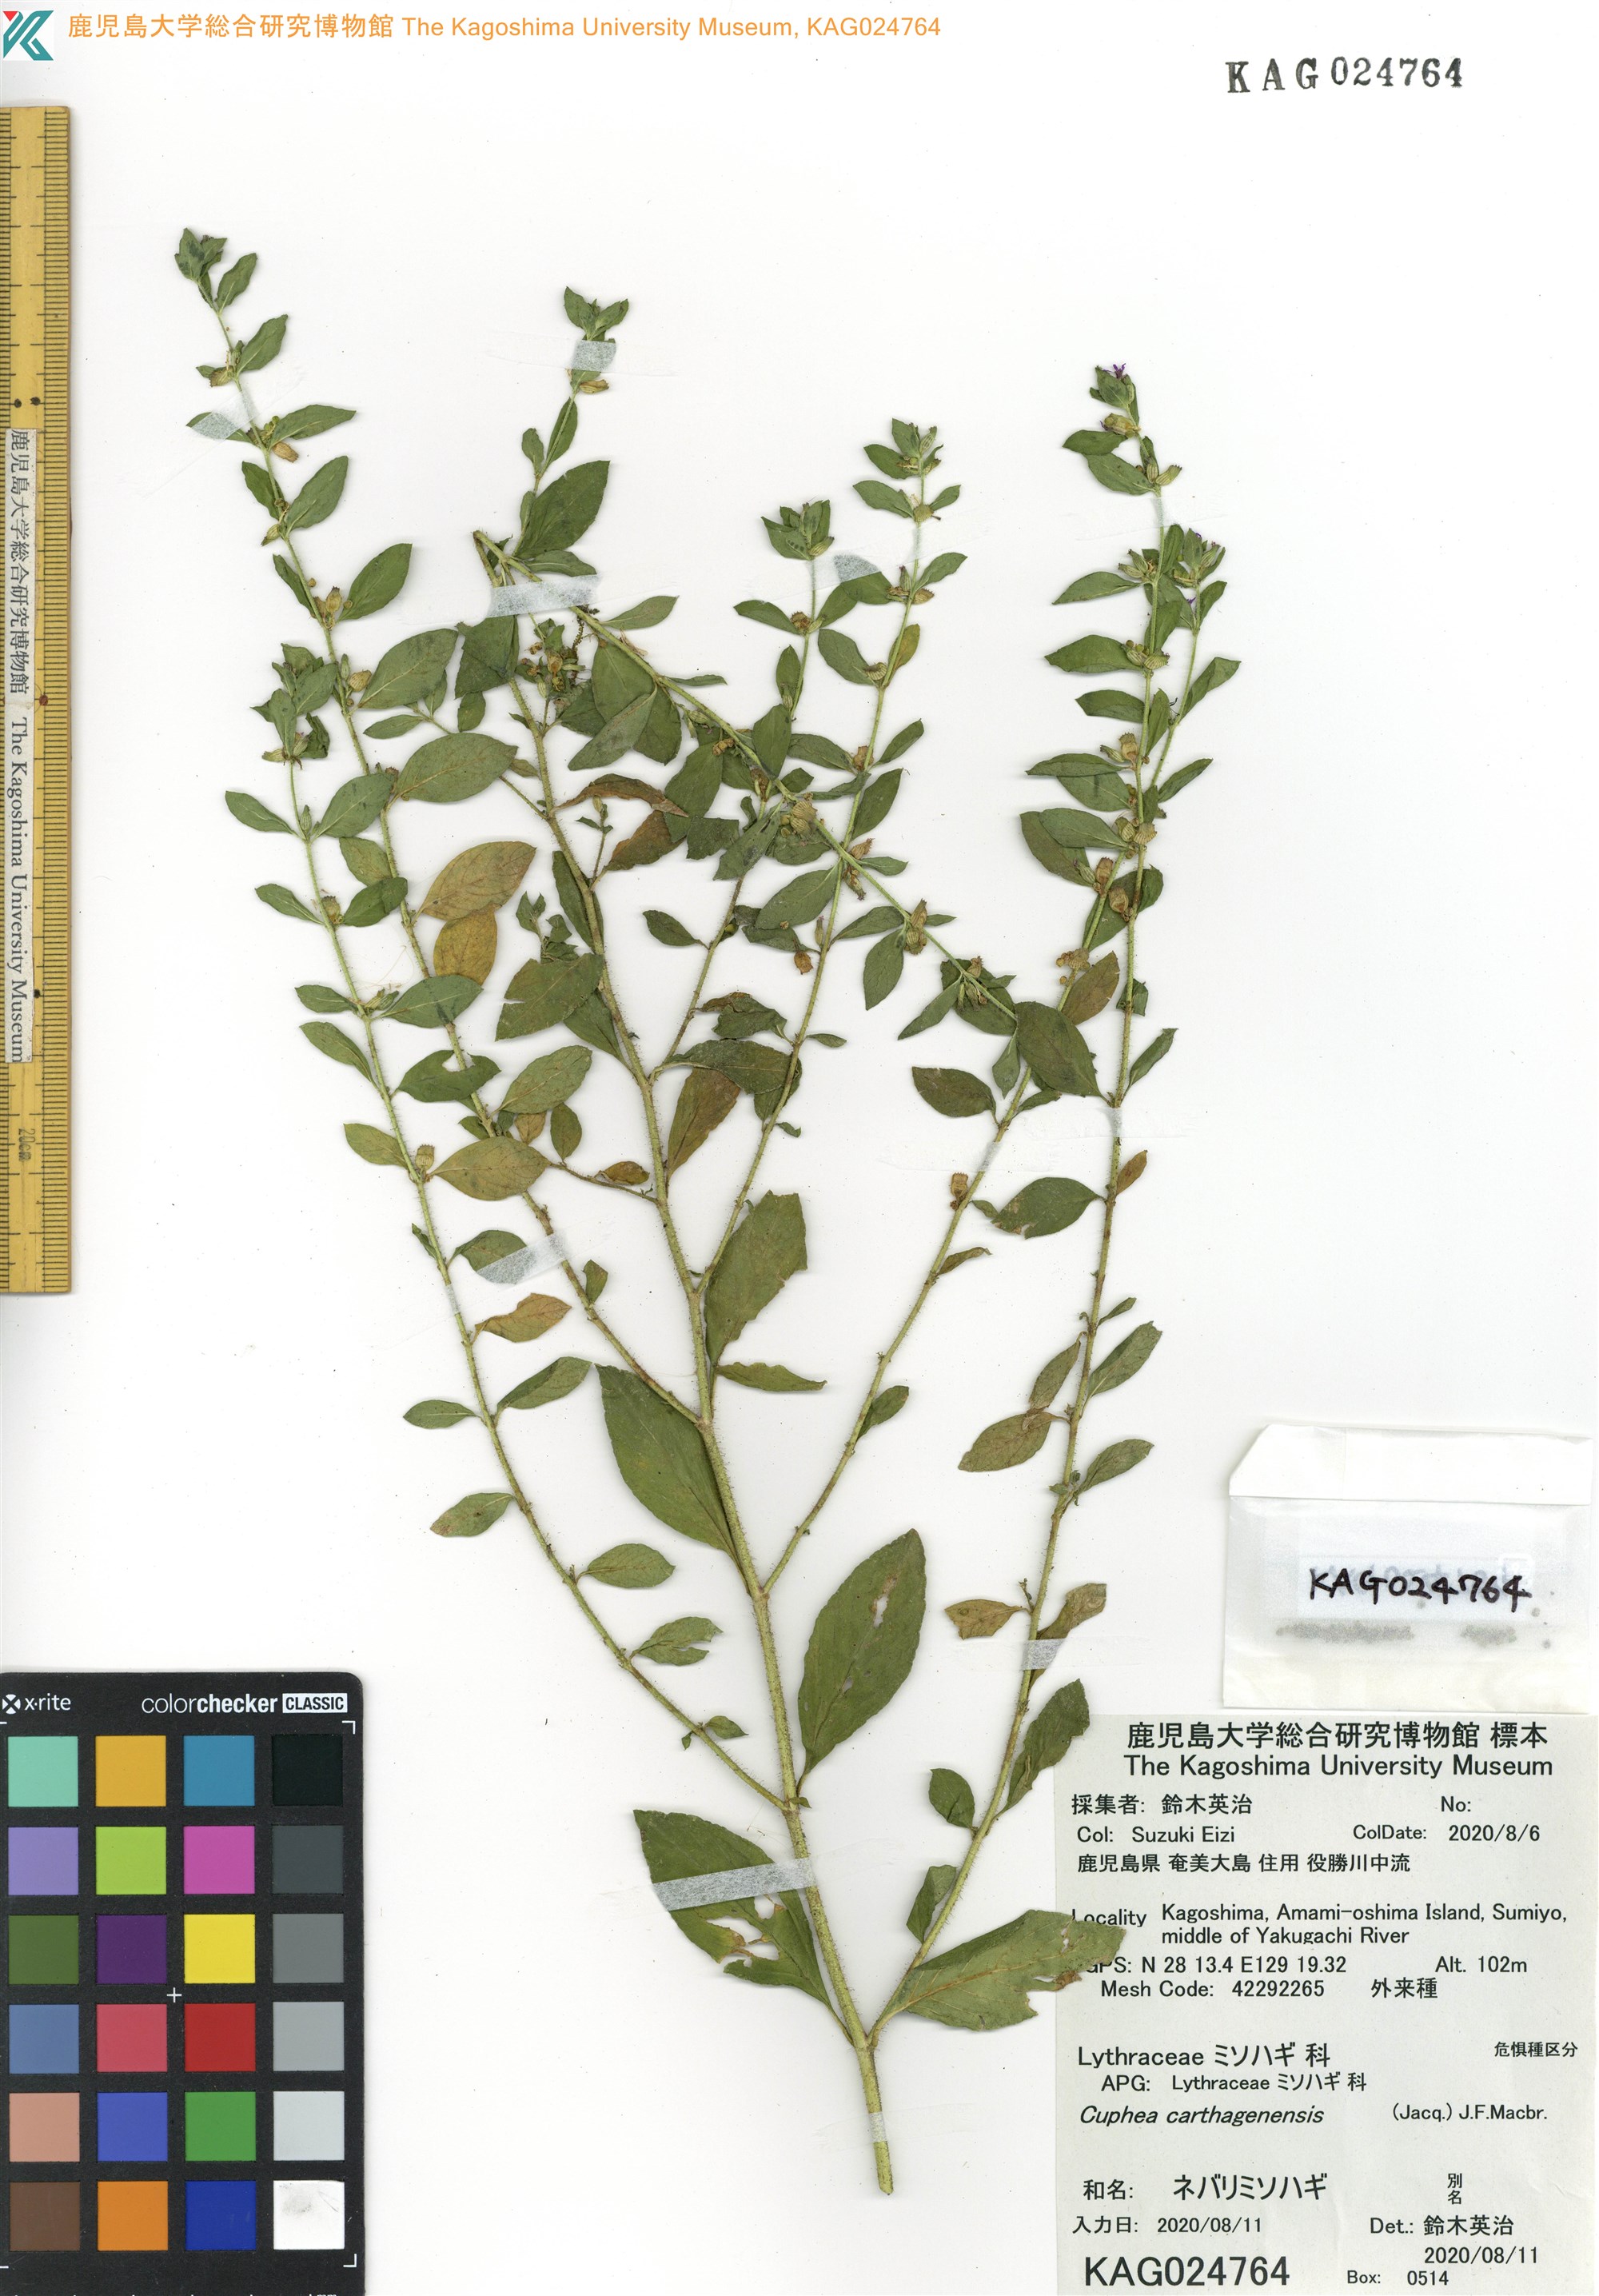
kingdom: Plantae
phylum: Tracheophyta
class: Magnoliopsida
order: Myrtales
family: Lythraceae
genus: Cuphea
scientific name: Cuphea carthagenensis
